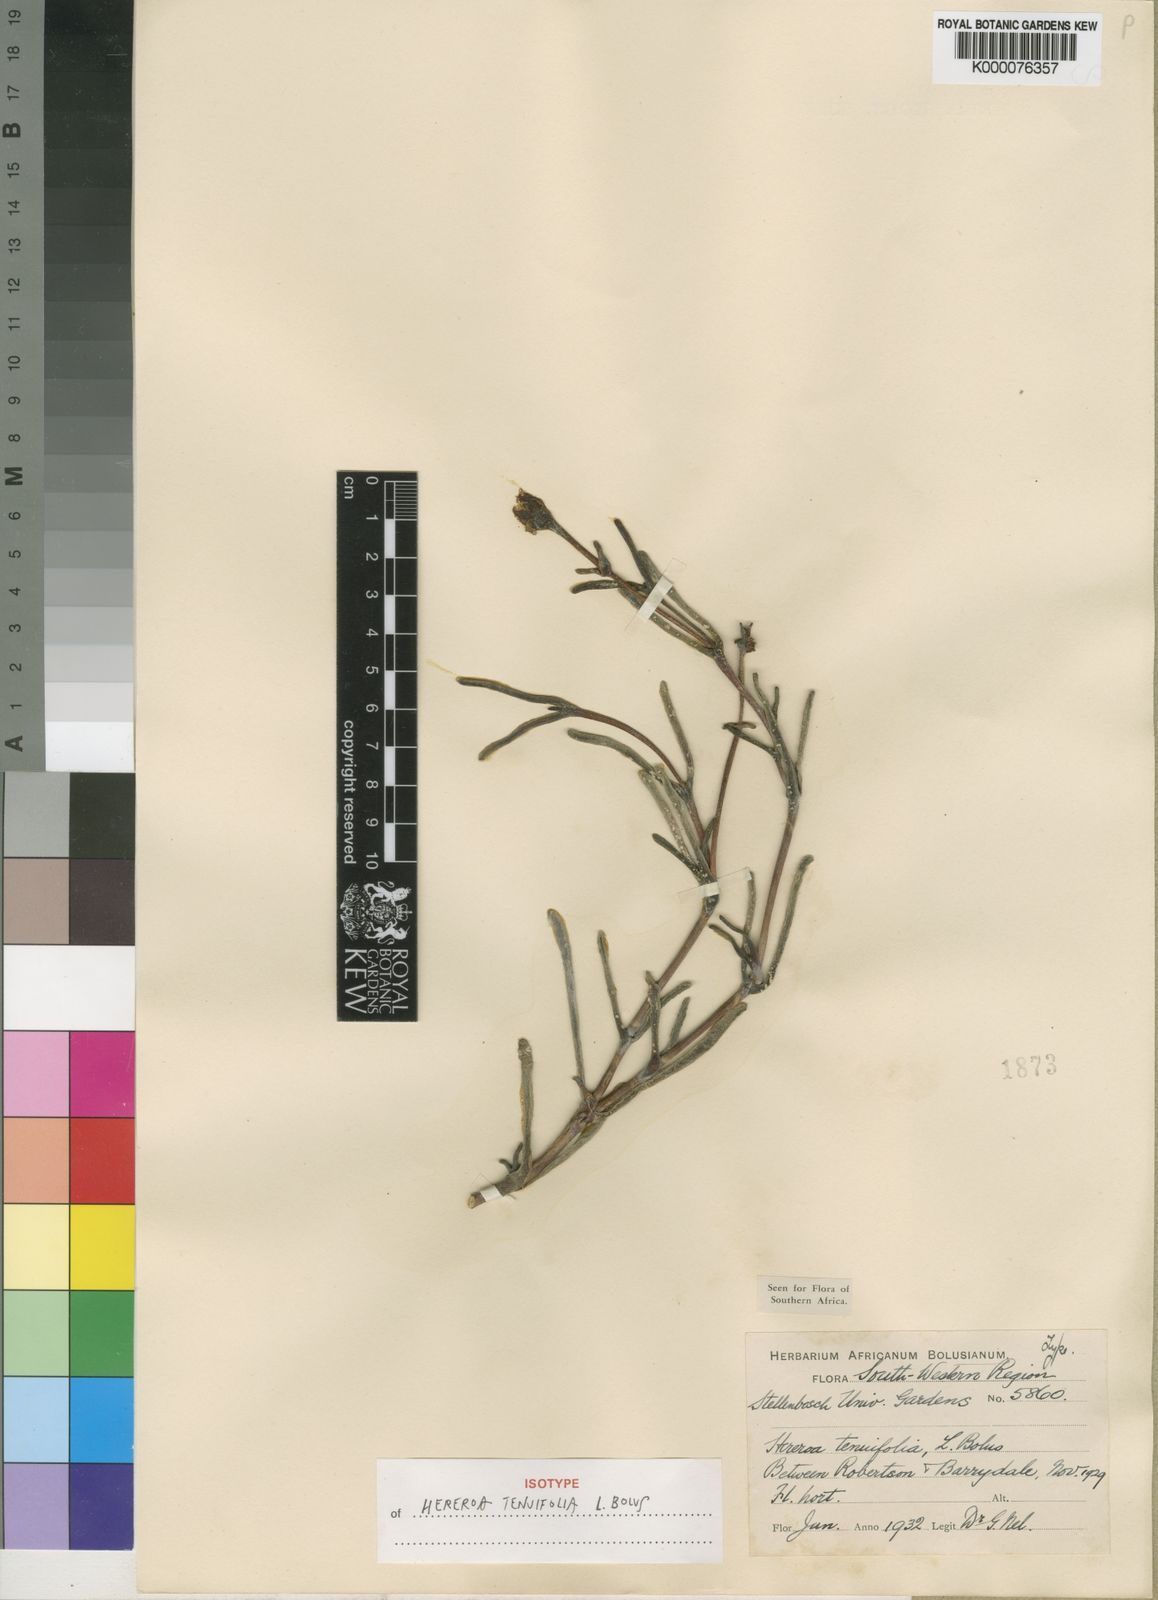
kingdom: Plantae
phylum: Tracheophyta
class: Magnoliopsida
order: Caryophyllales
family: Aizoaceae
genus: Dracophilus
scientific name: Dracophilus Hereroa tenuifolia
